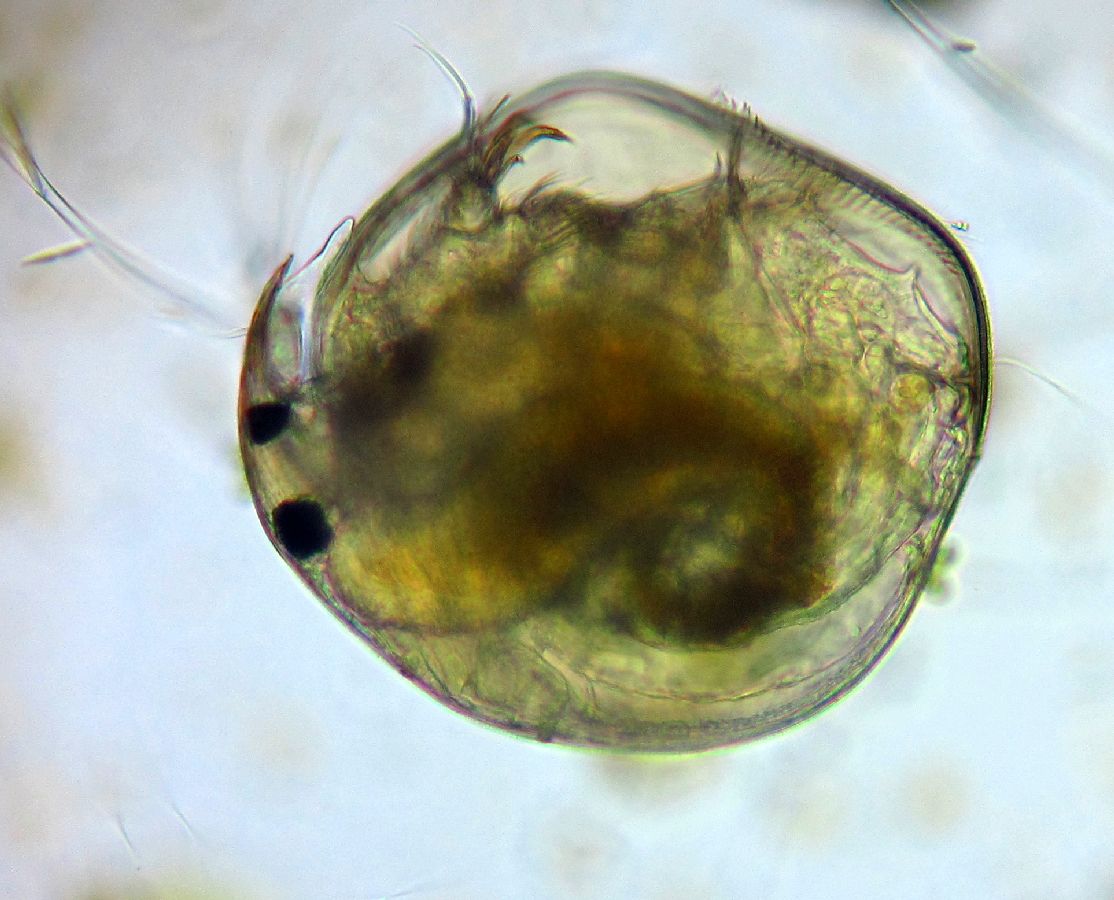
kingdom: Animalia
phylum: Arthropoda
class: Branchiopoda
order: Diplostraca
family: Chydoridae
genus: Chydorus
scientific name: Chydorus sphaericus
